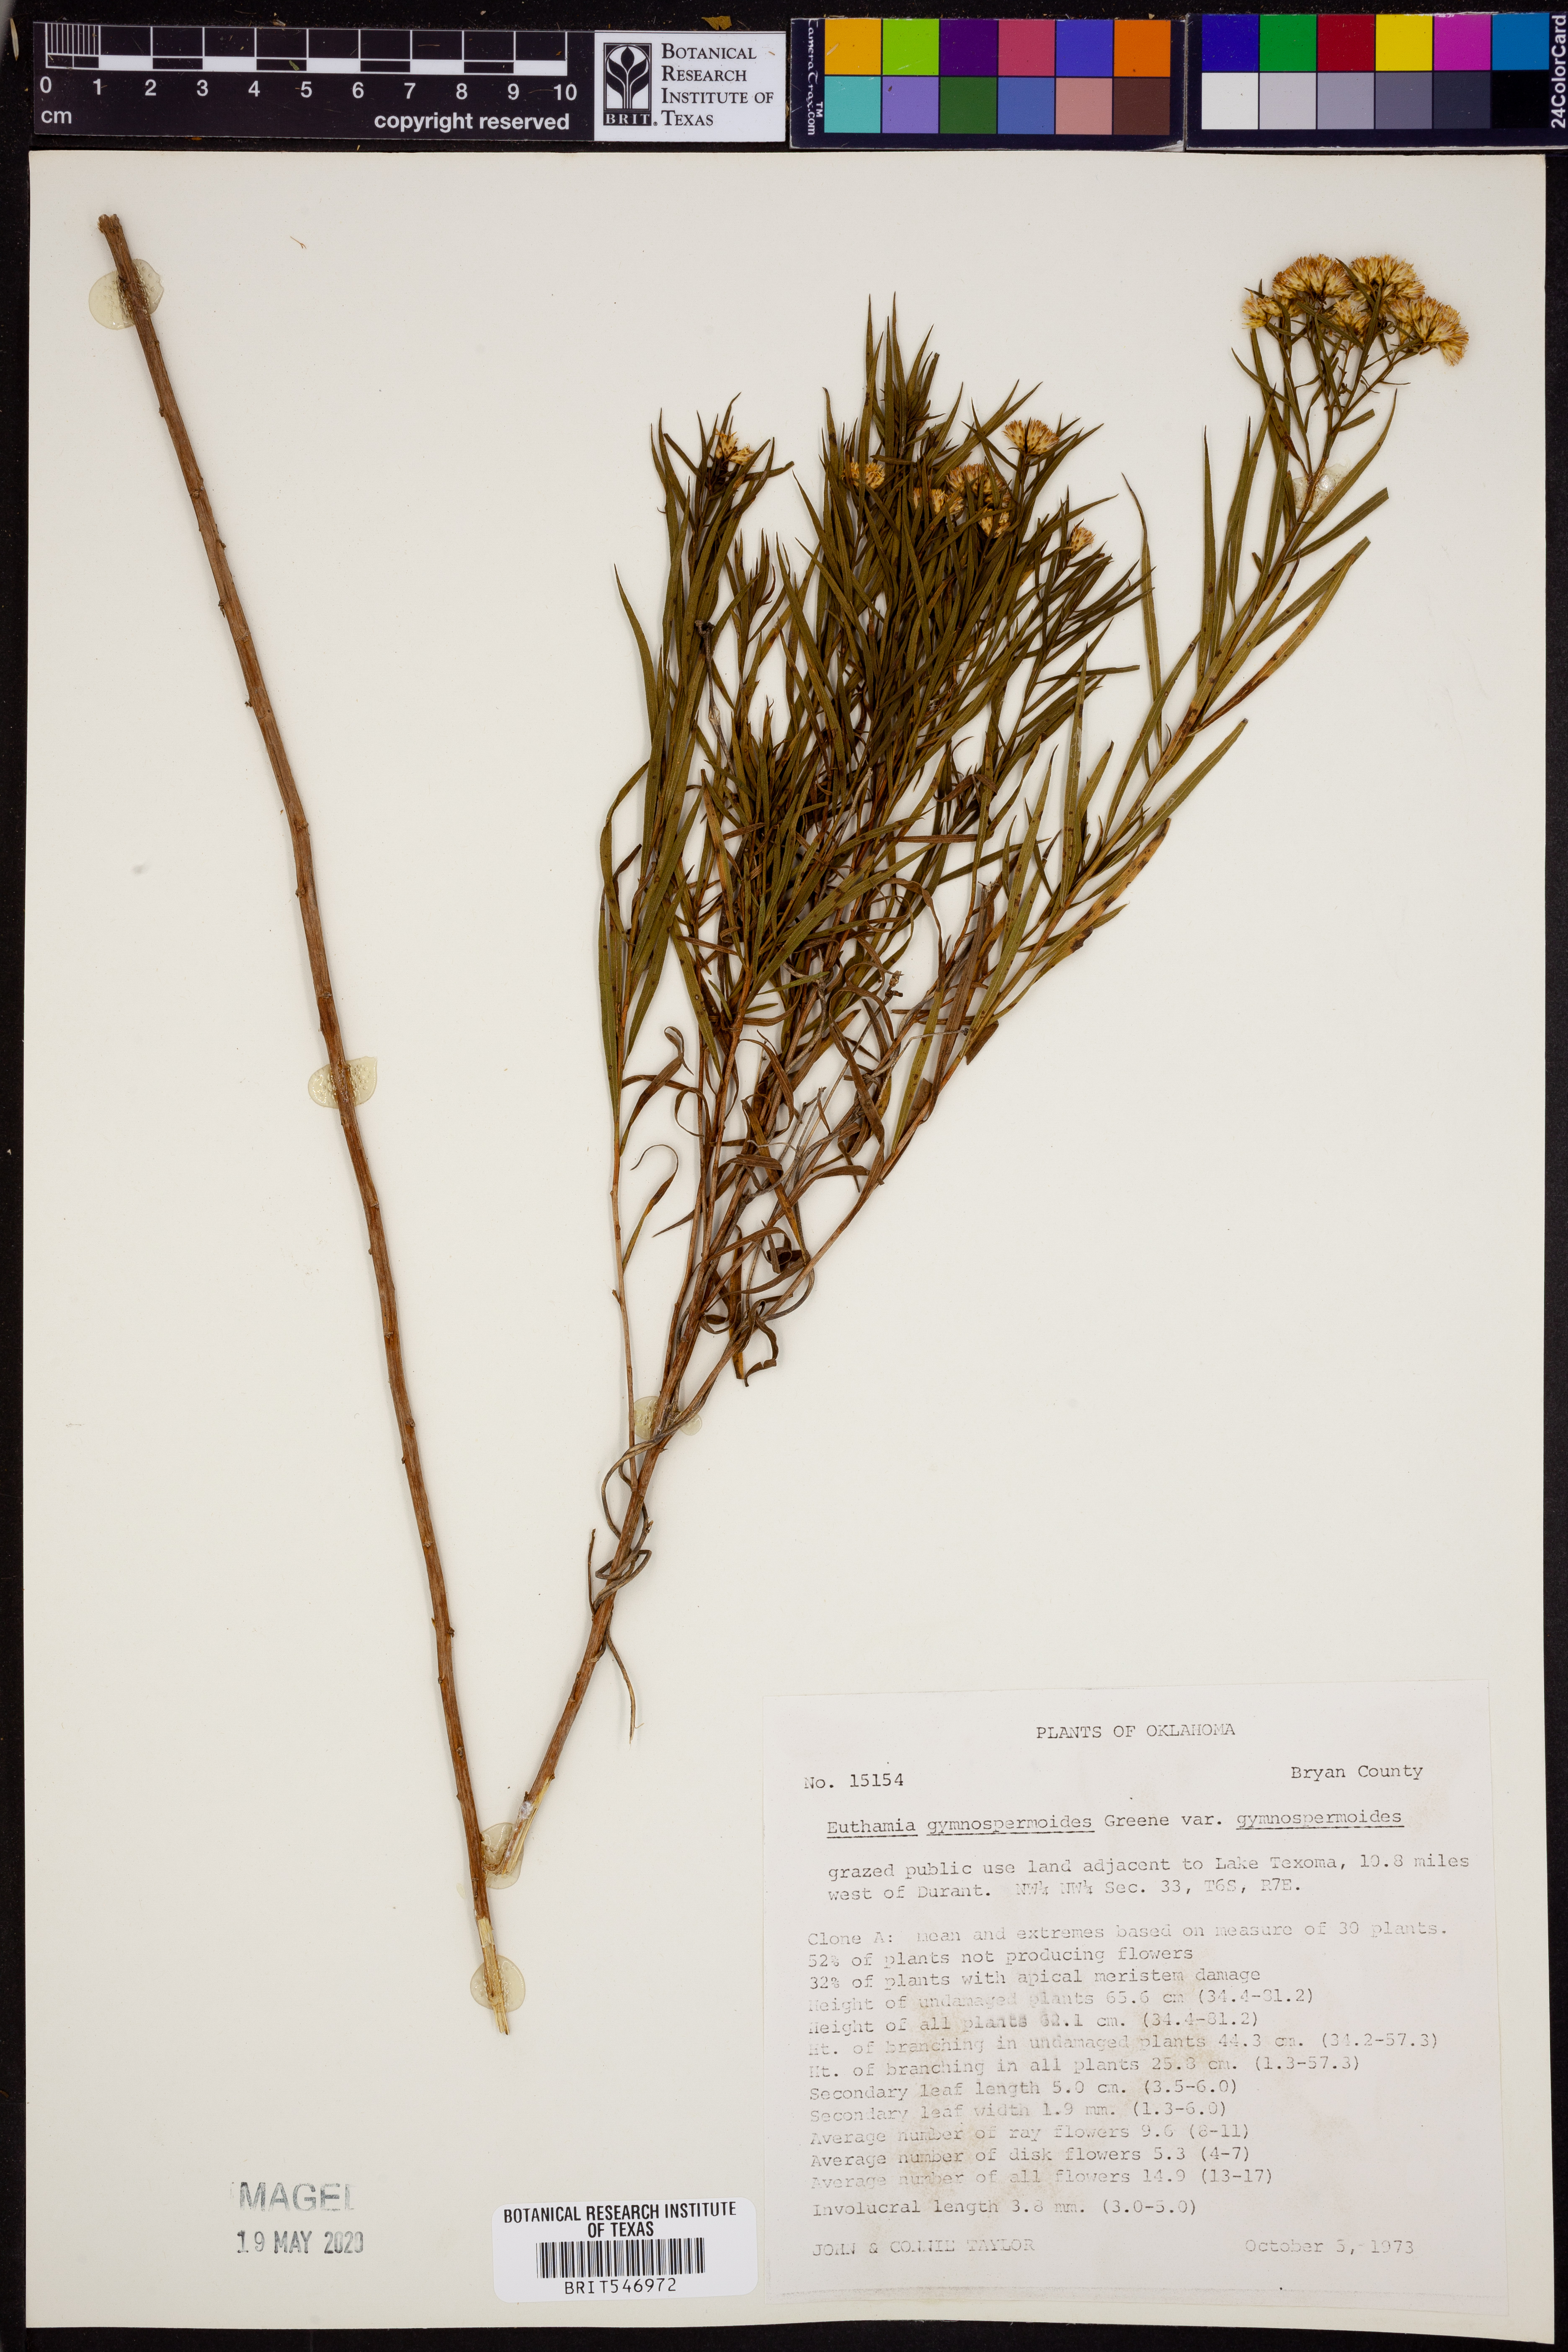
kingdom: Plantae
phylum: Tracheophyta
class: Magnoliopsida
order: Asterales
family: Asteraceae
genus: Euthamia
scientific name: Euthamia gymnospermoides
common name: Great plains goldentop
